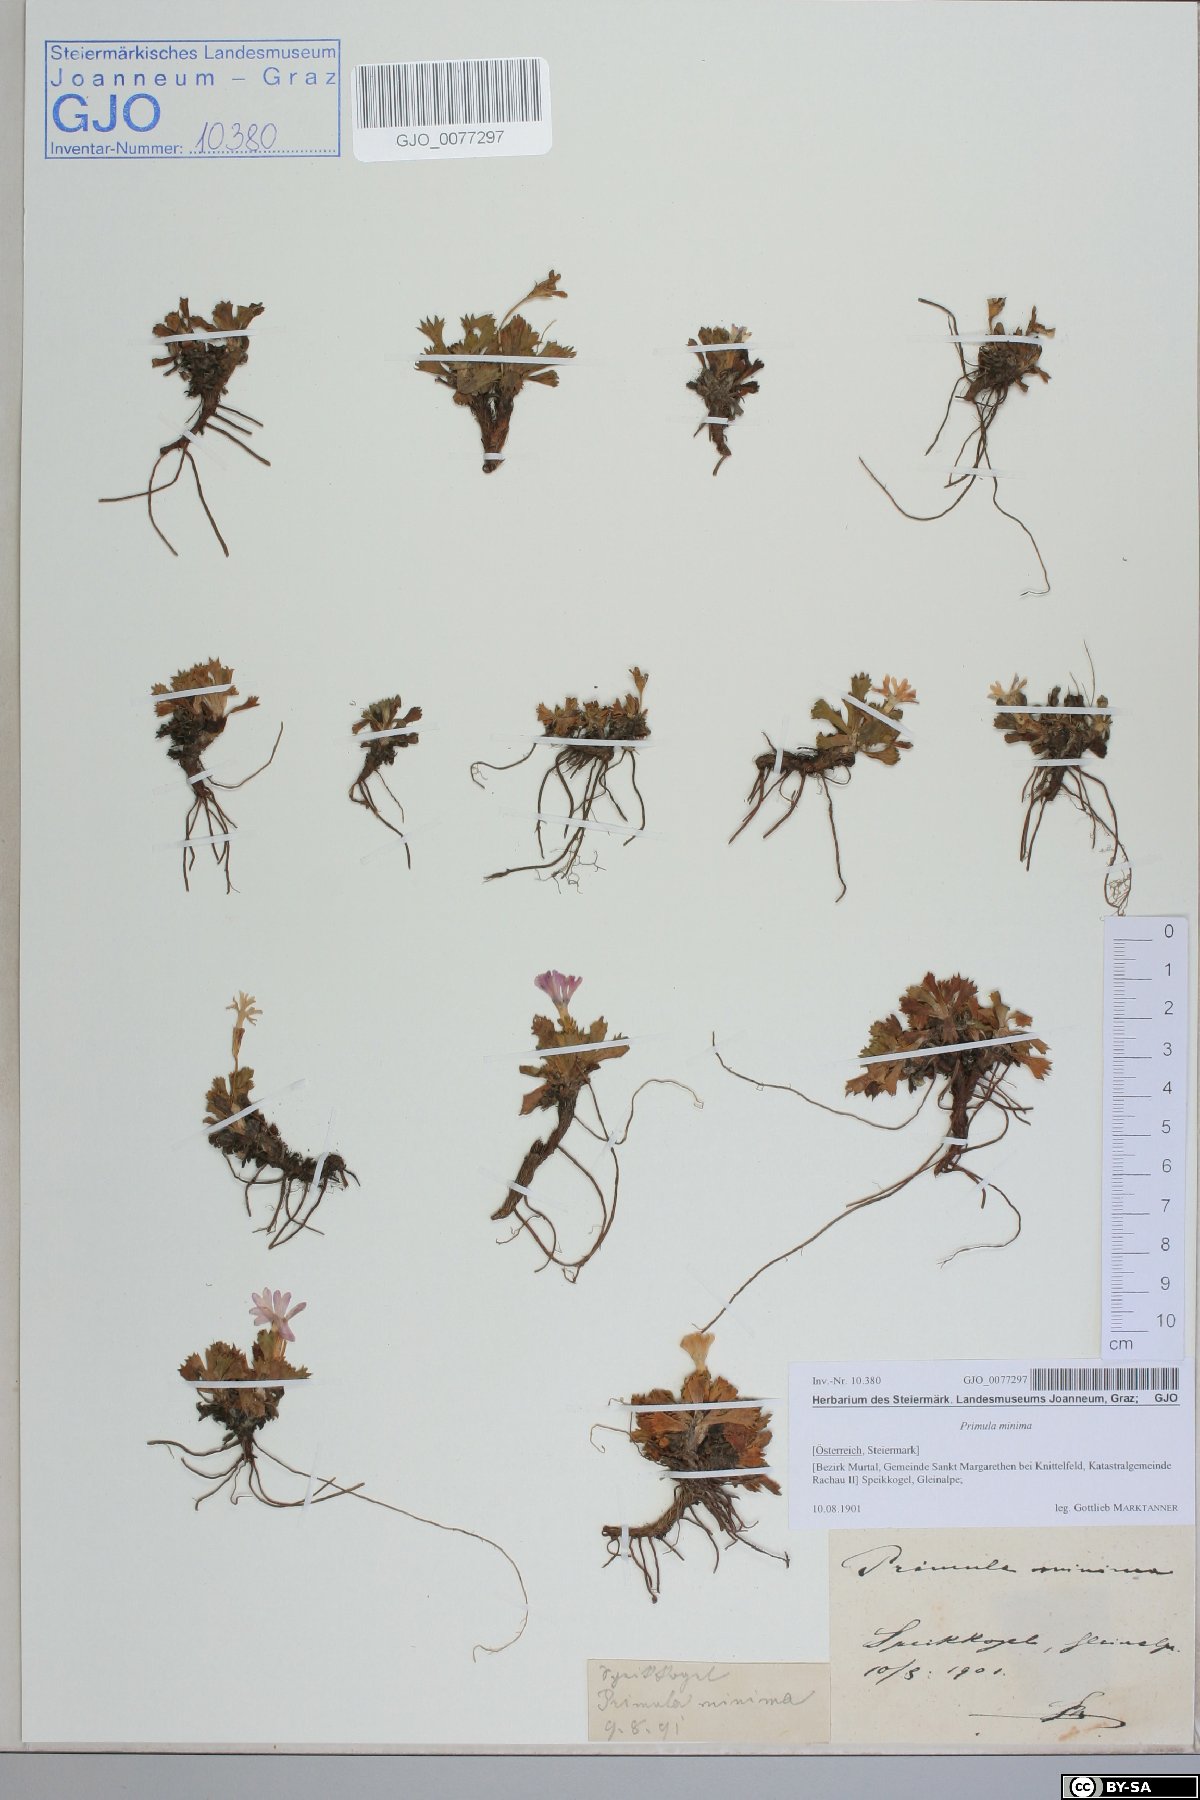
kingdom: Plantae
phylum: Tracheophyta
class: Magnoliopsida
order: Ericales
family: Primulaceae
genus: Primula
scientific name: Primula minima
